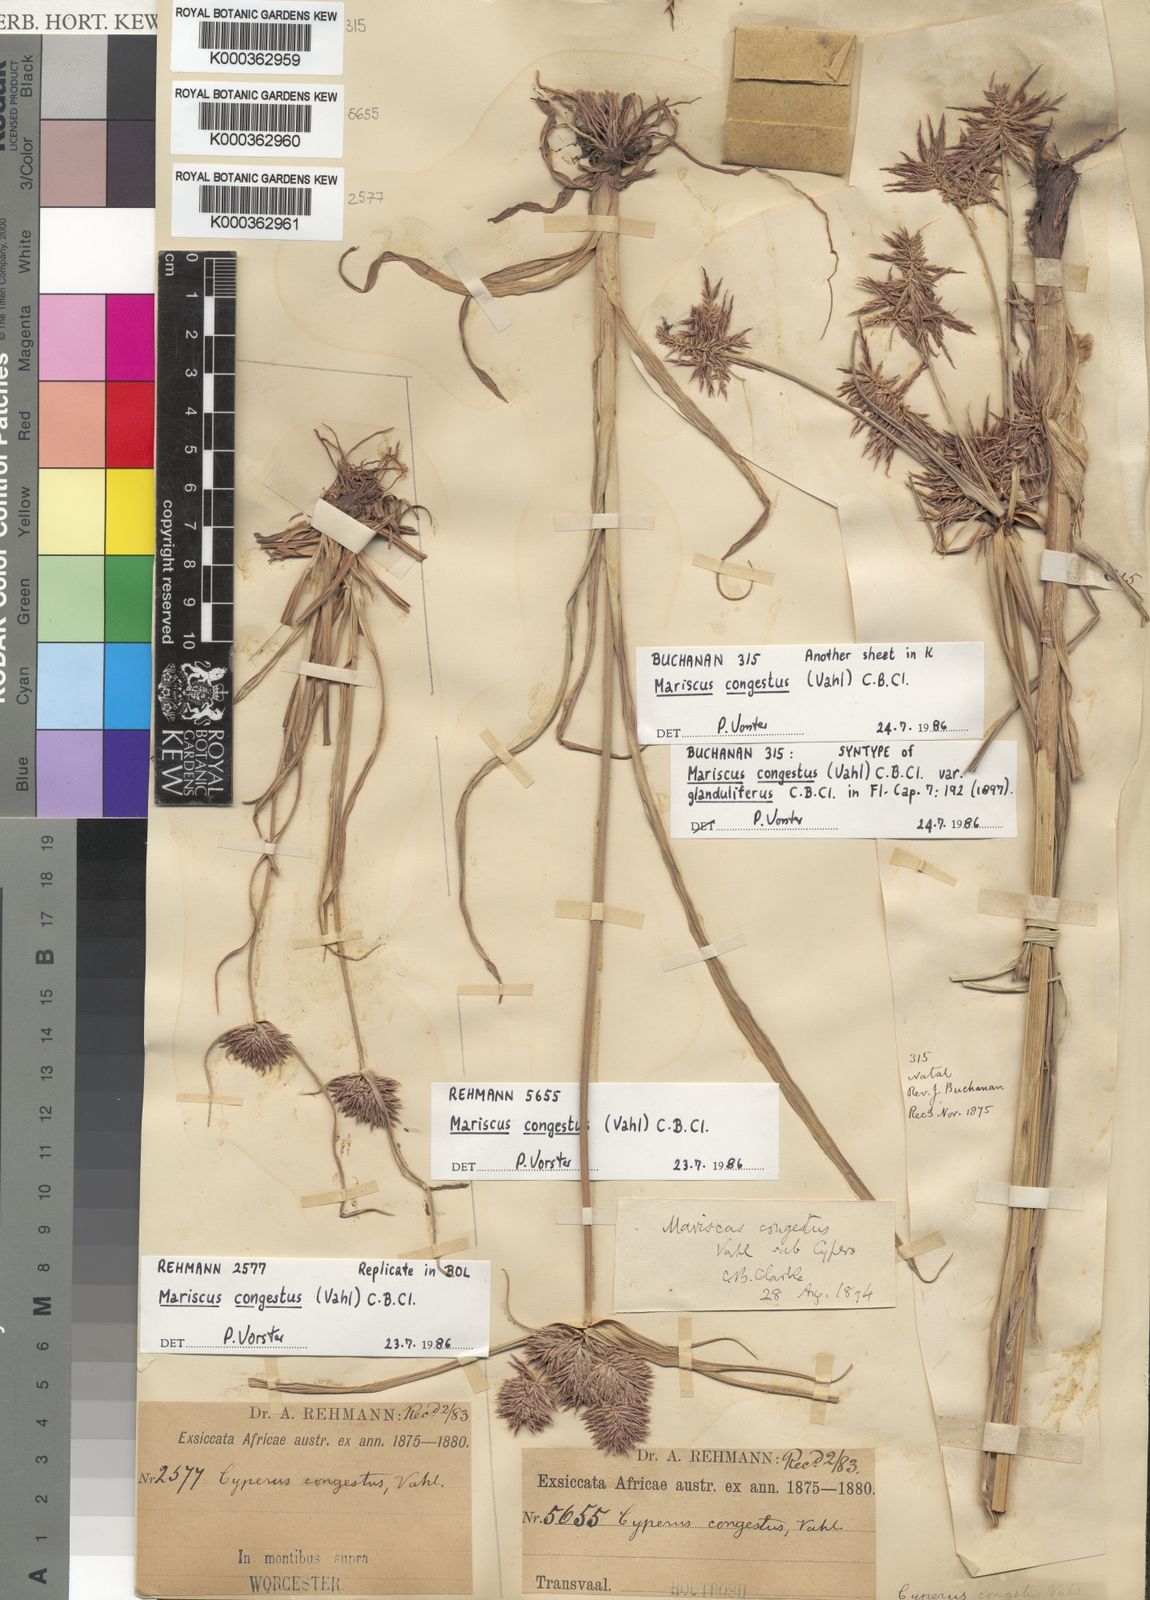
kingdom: Plantae
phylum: Tracheophyta
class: Liliopsida
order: Poales
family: Cyperaceae
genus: Cyperus
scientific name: Cyperus congestus
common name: Dense flat sedge
